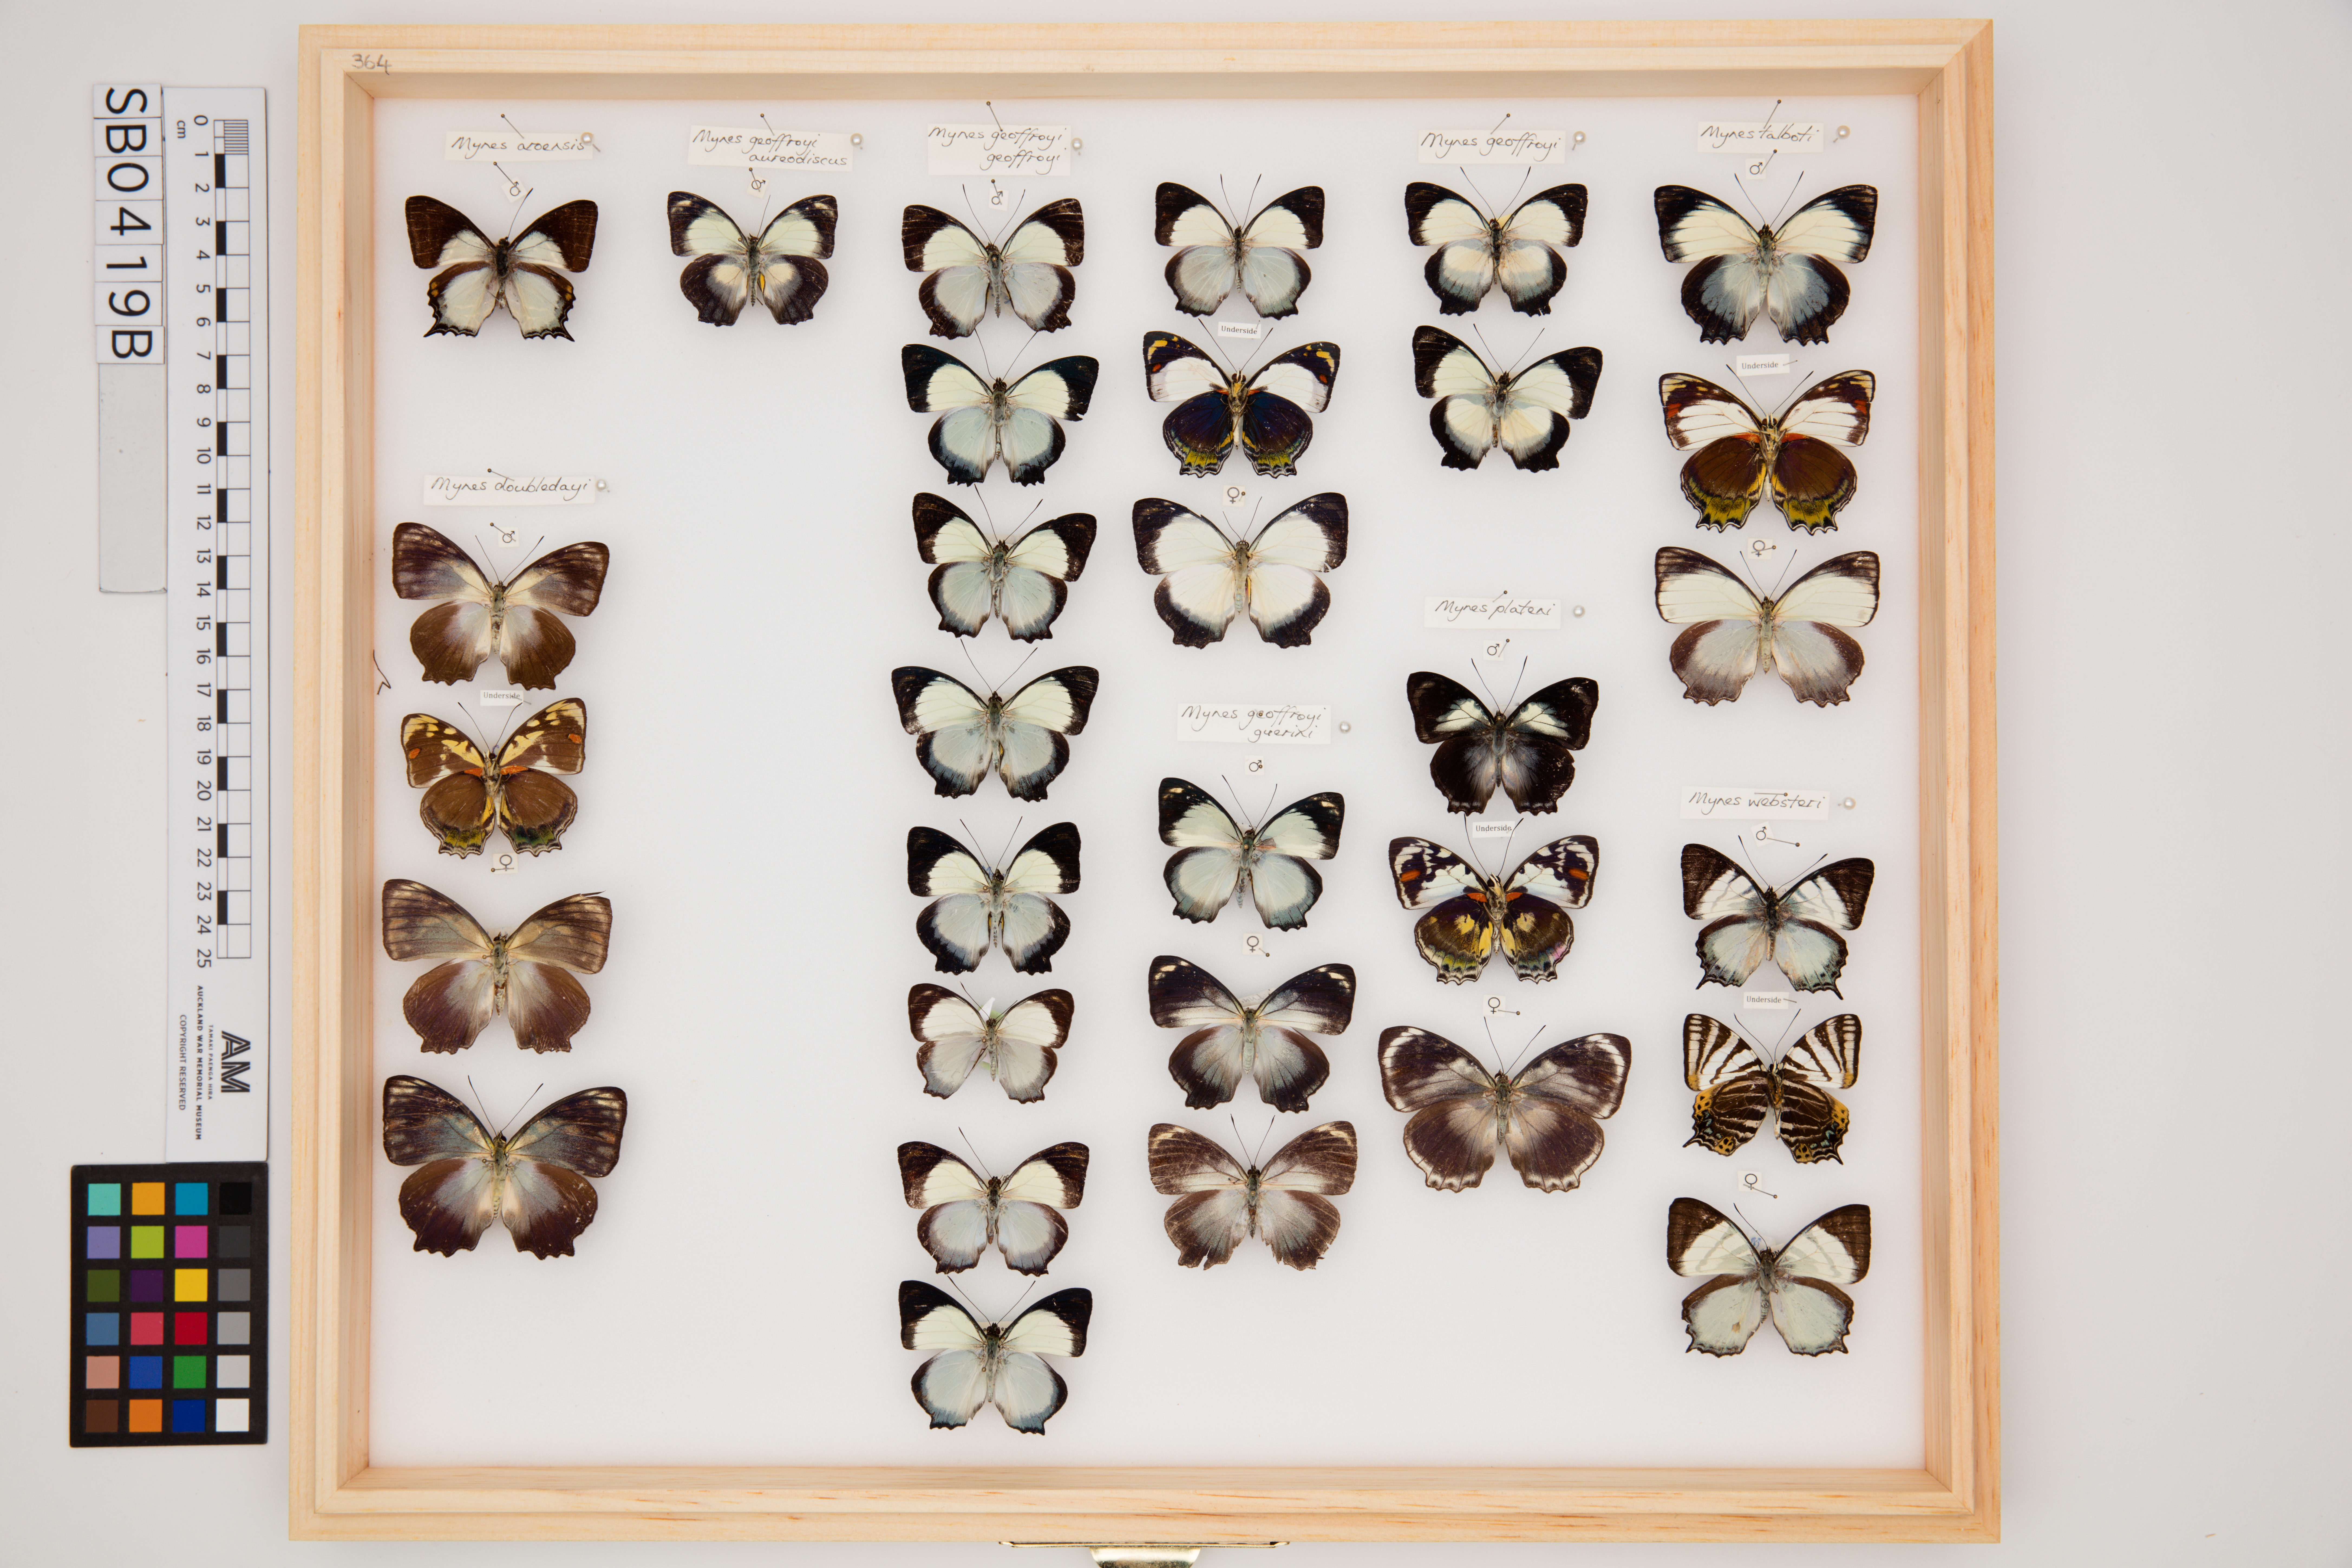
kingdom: Animalia
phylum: Arthropoda
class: Insecta
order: Lepidoptera
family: Nymphalidae
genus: Mynes
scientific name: Mynes geoffroyi
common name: Jezebel nymph
